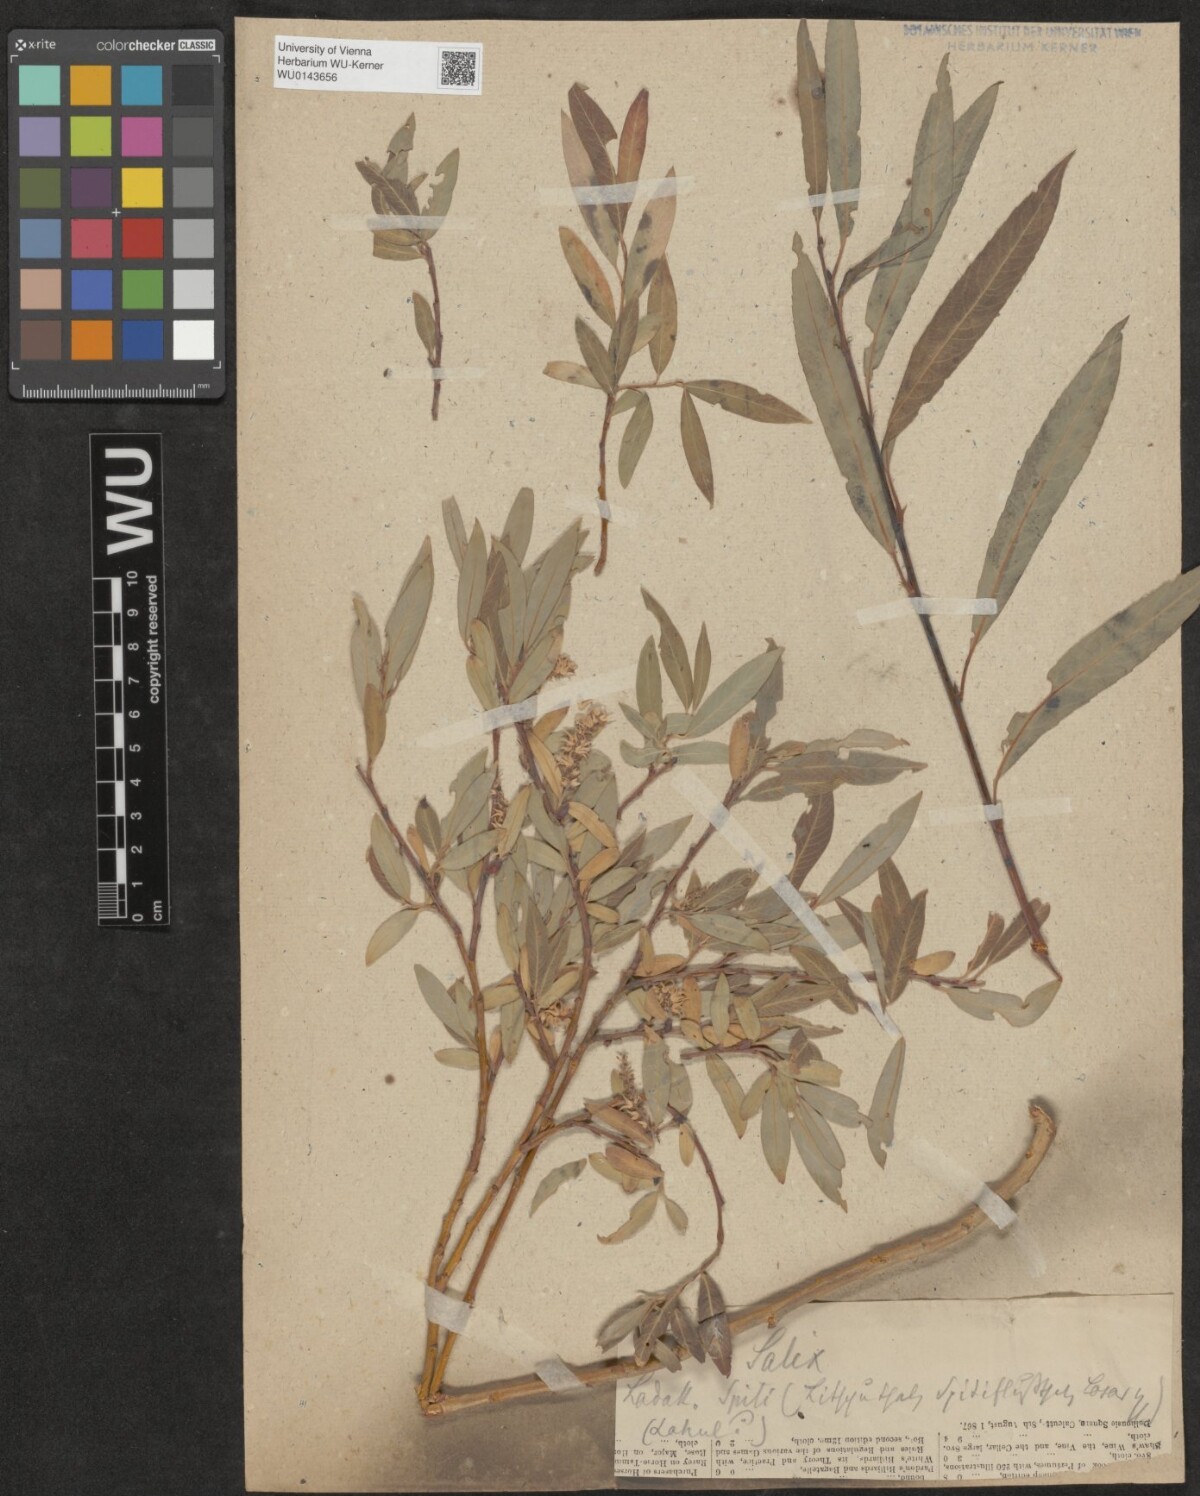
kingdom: Plantae
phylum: Tracheophyta
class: Magnoliopsida
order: Malpighiales
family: Salicaceae
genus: Salix
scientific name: Salix
